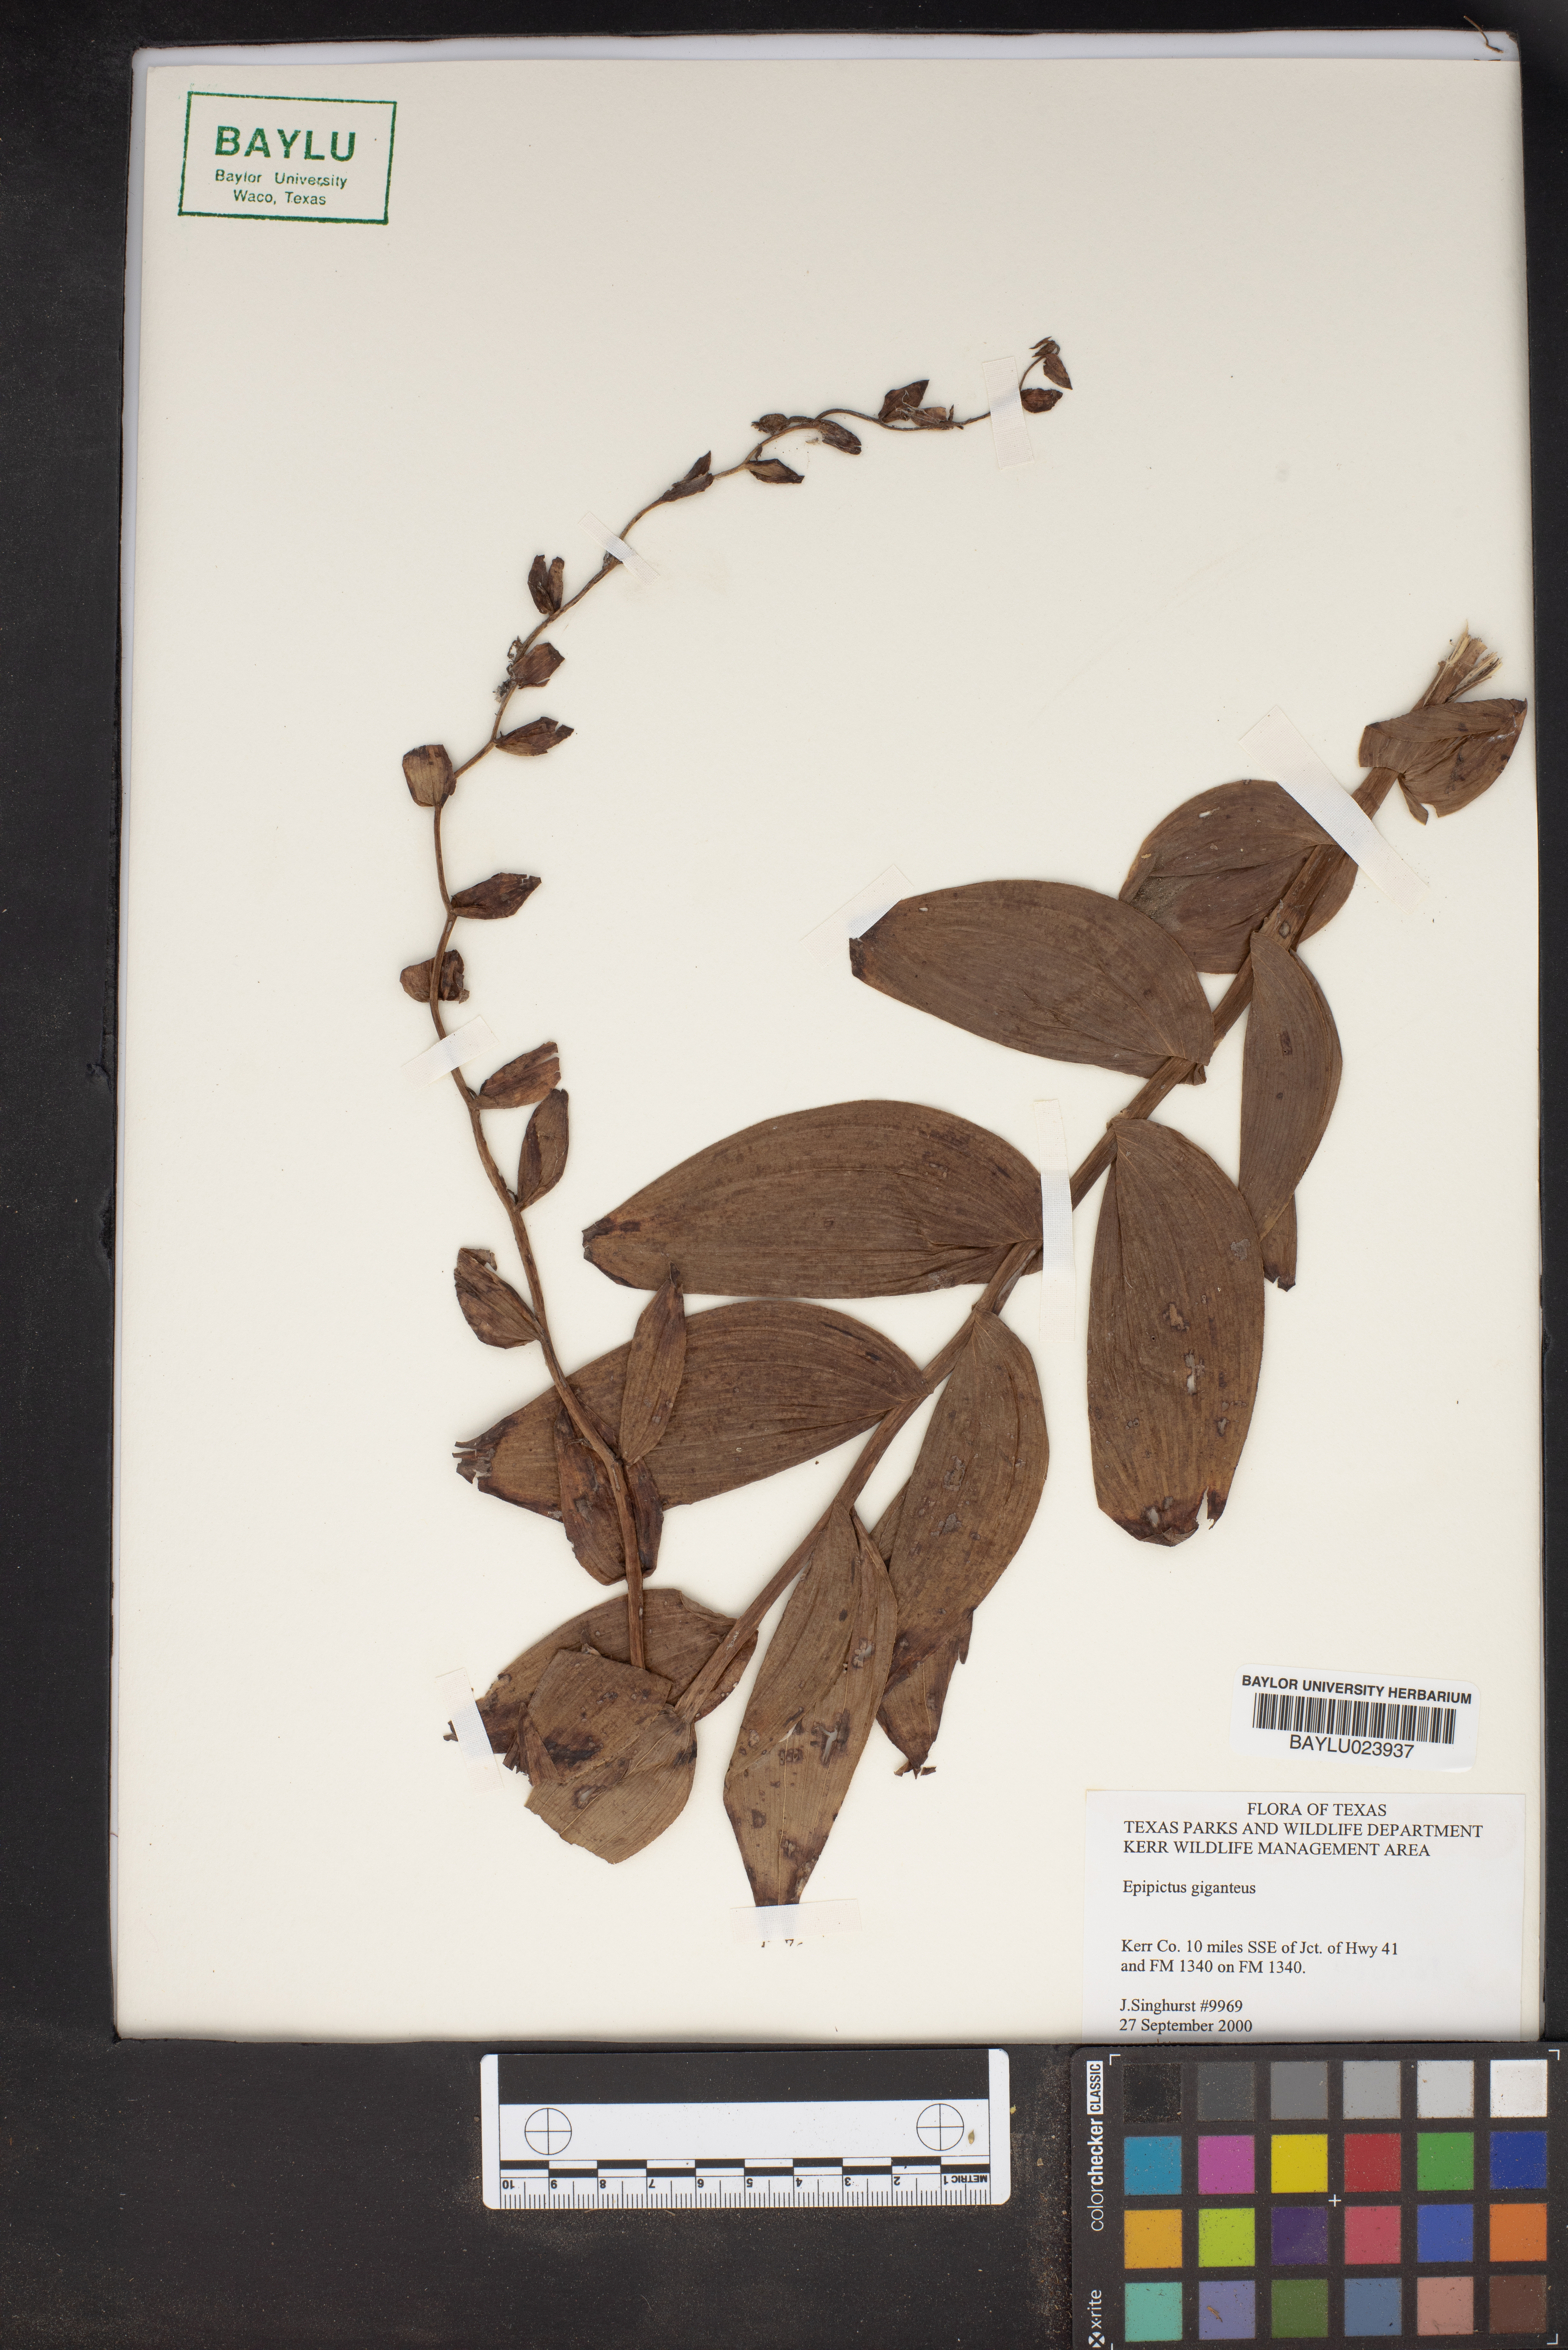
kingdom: Plantae
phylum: Tracheophyta
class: Liliopsida
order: Asparagales
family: Orchidaceae
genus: Epipactis
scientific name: Epipactis gigantea
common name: Chatterbox
